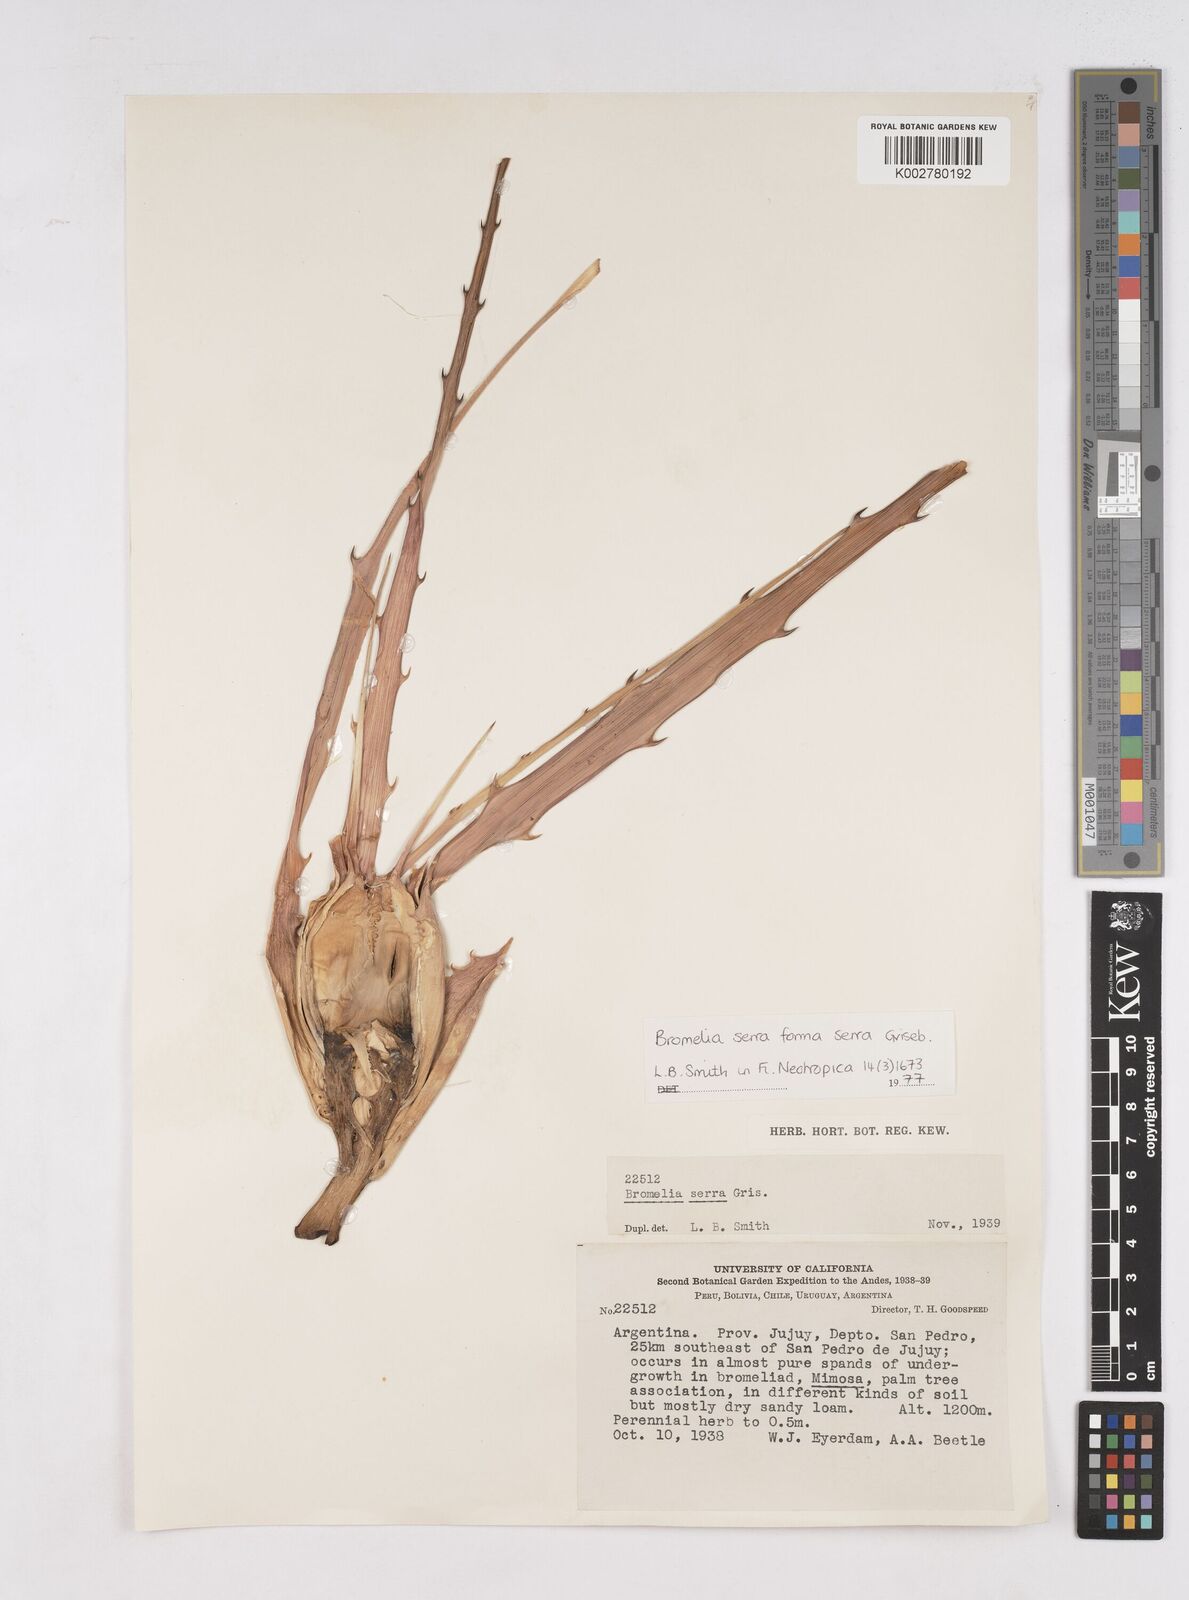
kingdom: Plantae
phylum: Tracheophyta
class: Liliopsida
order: Poales
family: Bromeliaceae
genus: Bromelia
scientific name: Bromelia serra
